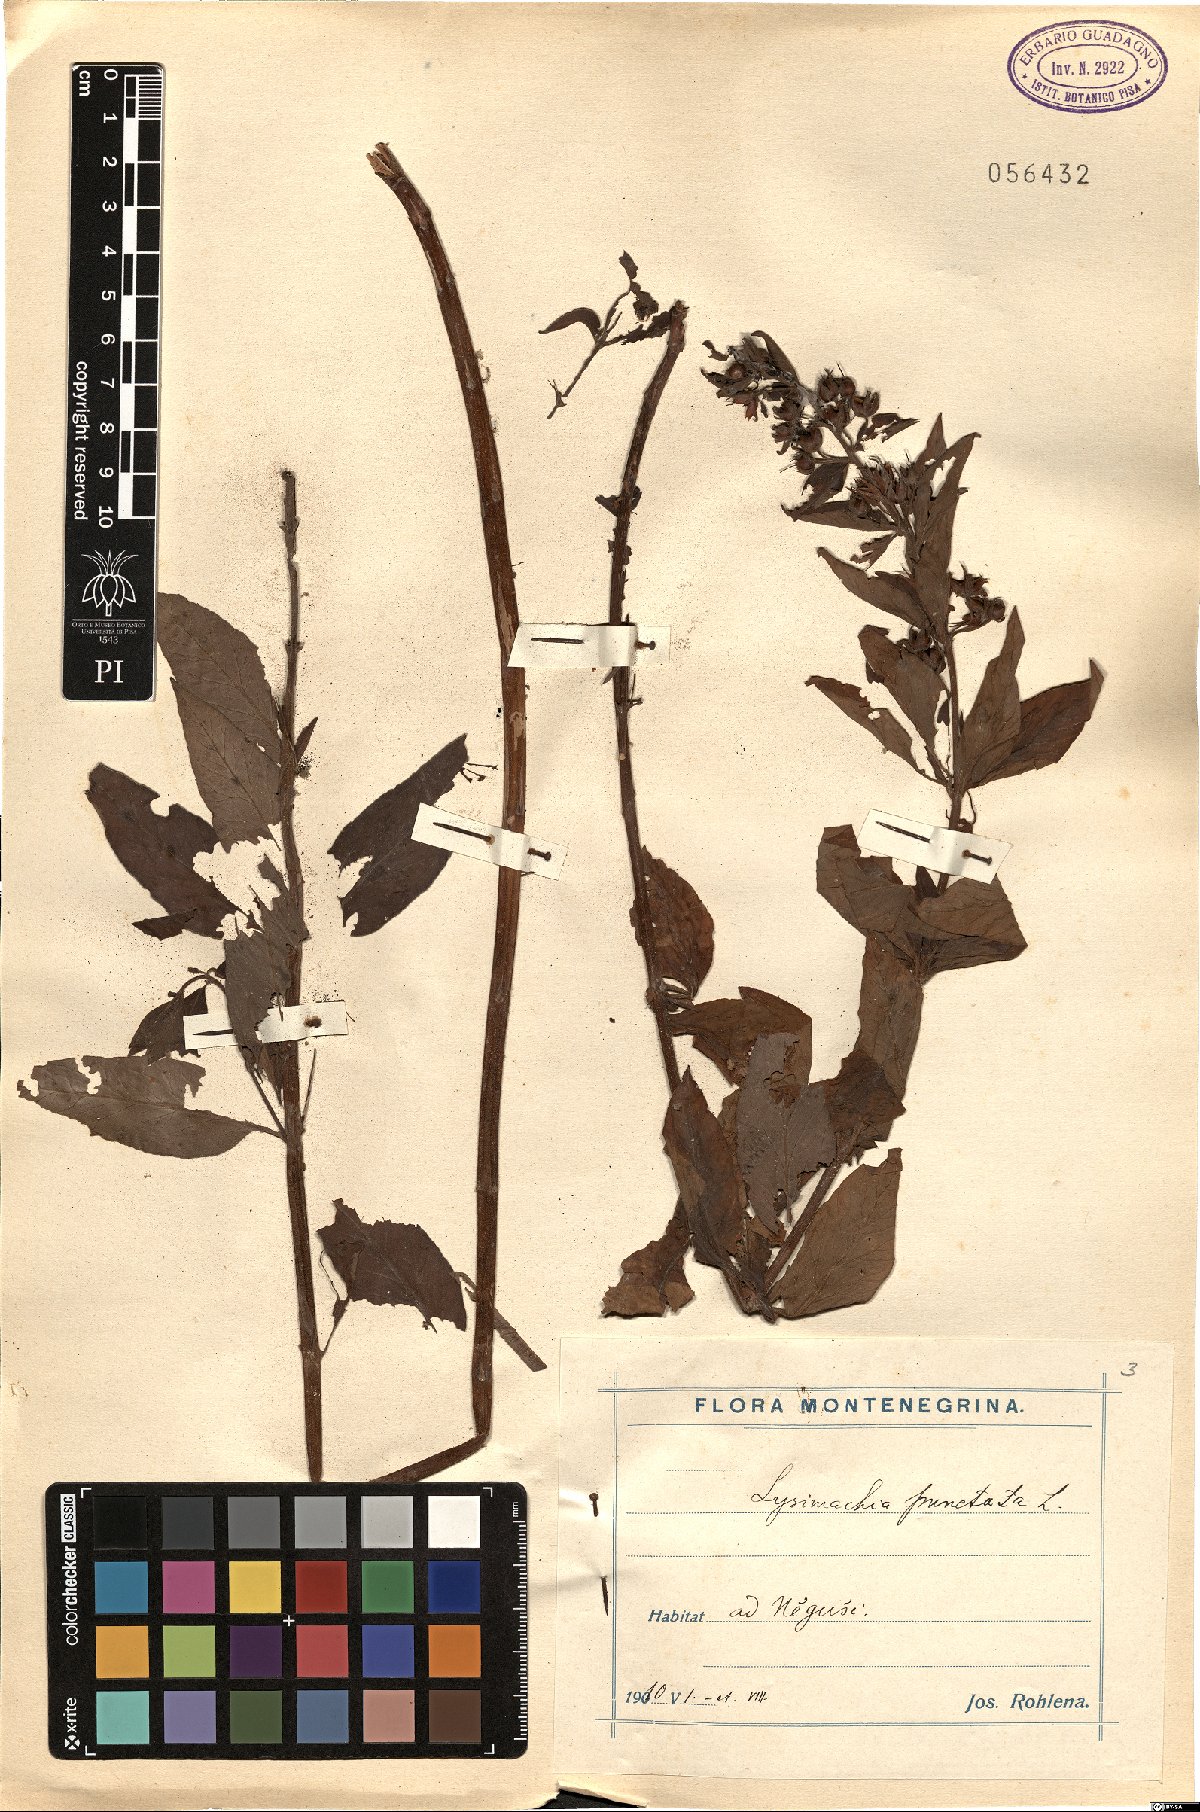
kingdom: Plantae
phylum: Tracheophyta
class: Magnoliopsida
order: Ericales
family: Primulaceae
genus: Lysimachia
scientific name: Lysimachia punctata
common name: Dotted loosestrife
